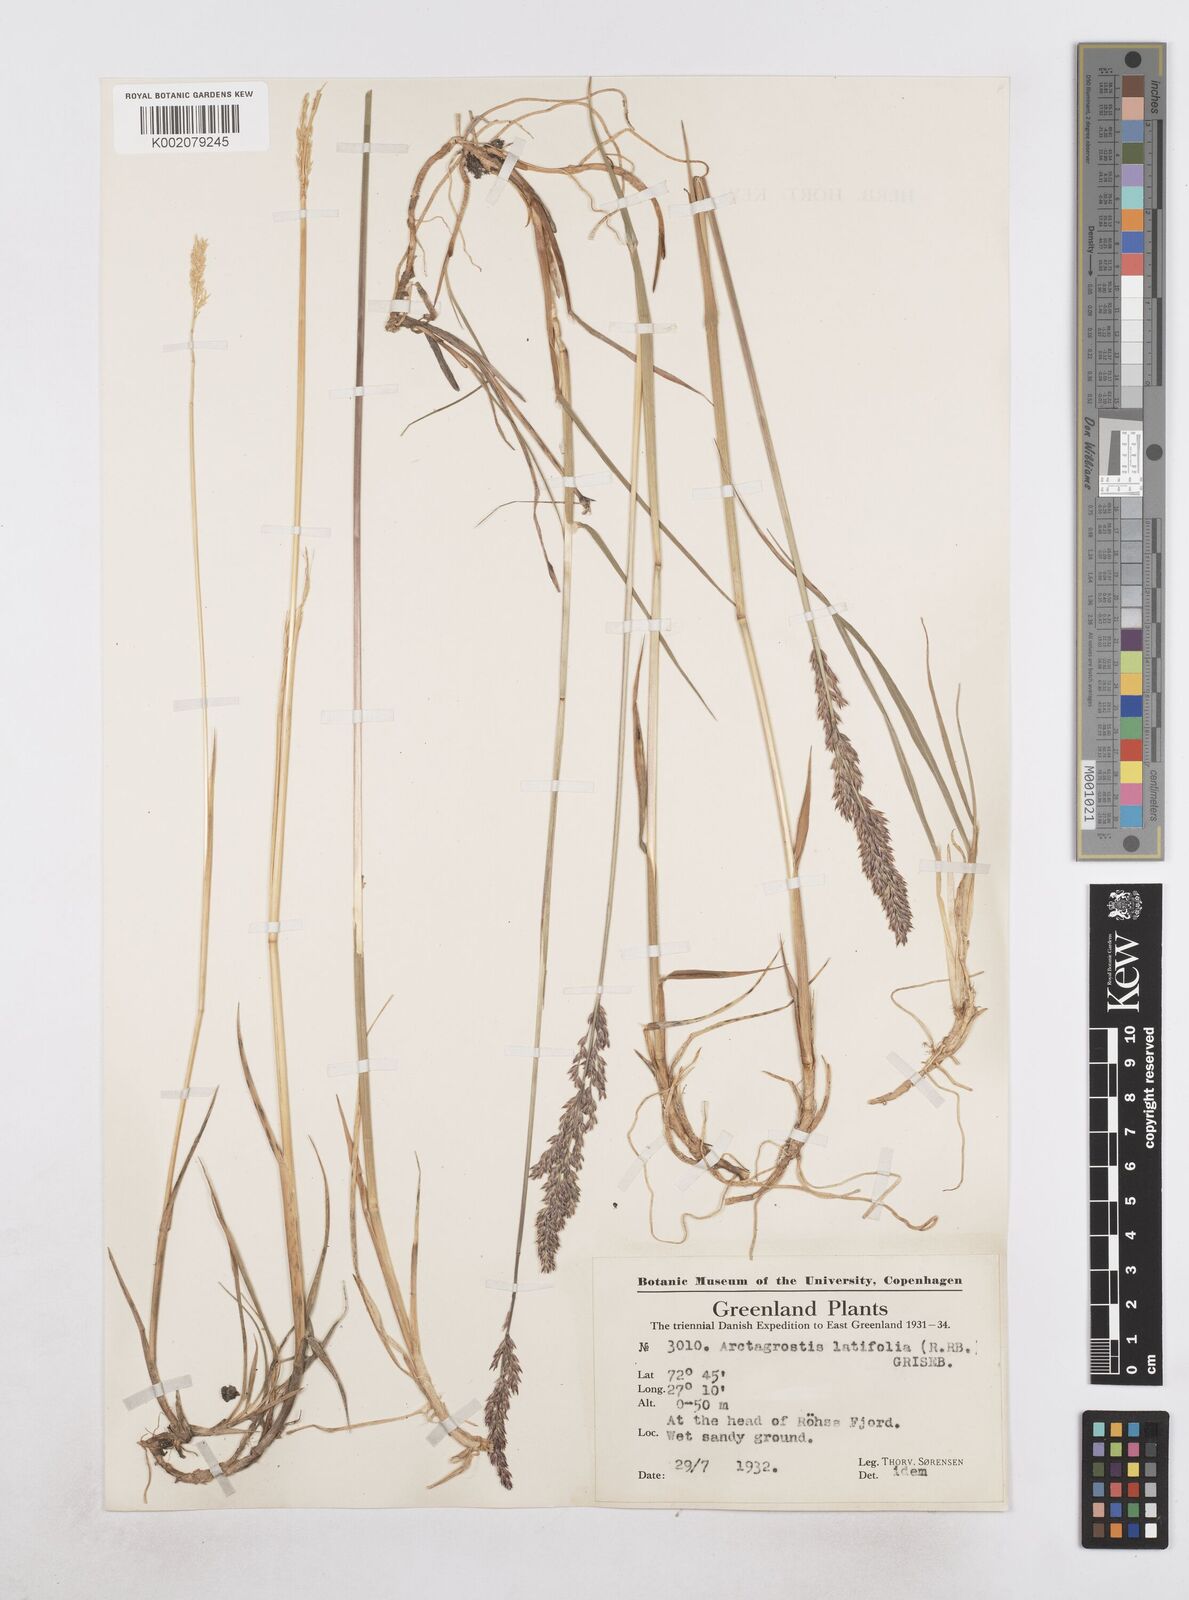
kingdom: Plantae
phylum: Tracheophyta
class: Liliopsida
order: Poales
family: Poaceae
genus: Arctagrostis
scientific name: Arctagrostis latifolia
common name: Arctic grass
